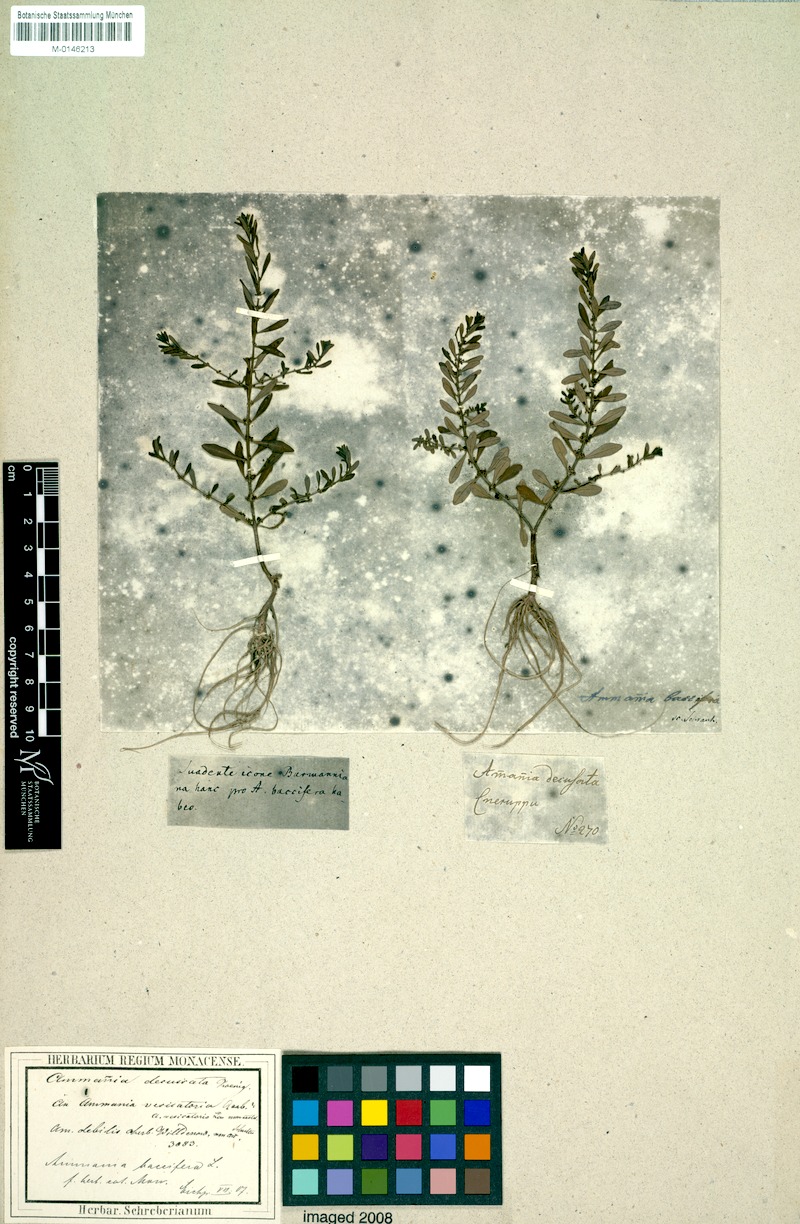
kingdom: Plantae
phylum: Tracheophyta
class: Magnoliopsida
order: Myrtales
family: Lythraceae
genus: Ammannia
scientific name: Ammannia baccifera
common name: Blistering ammania
